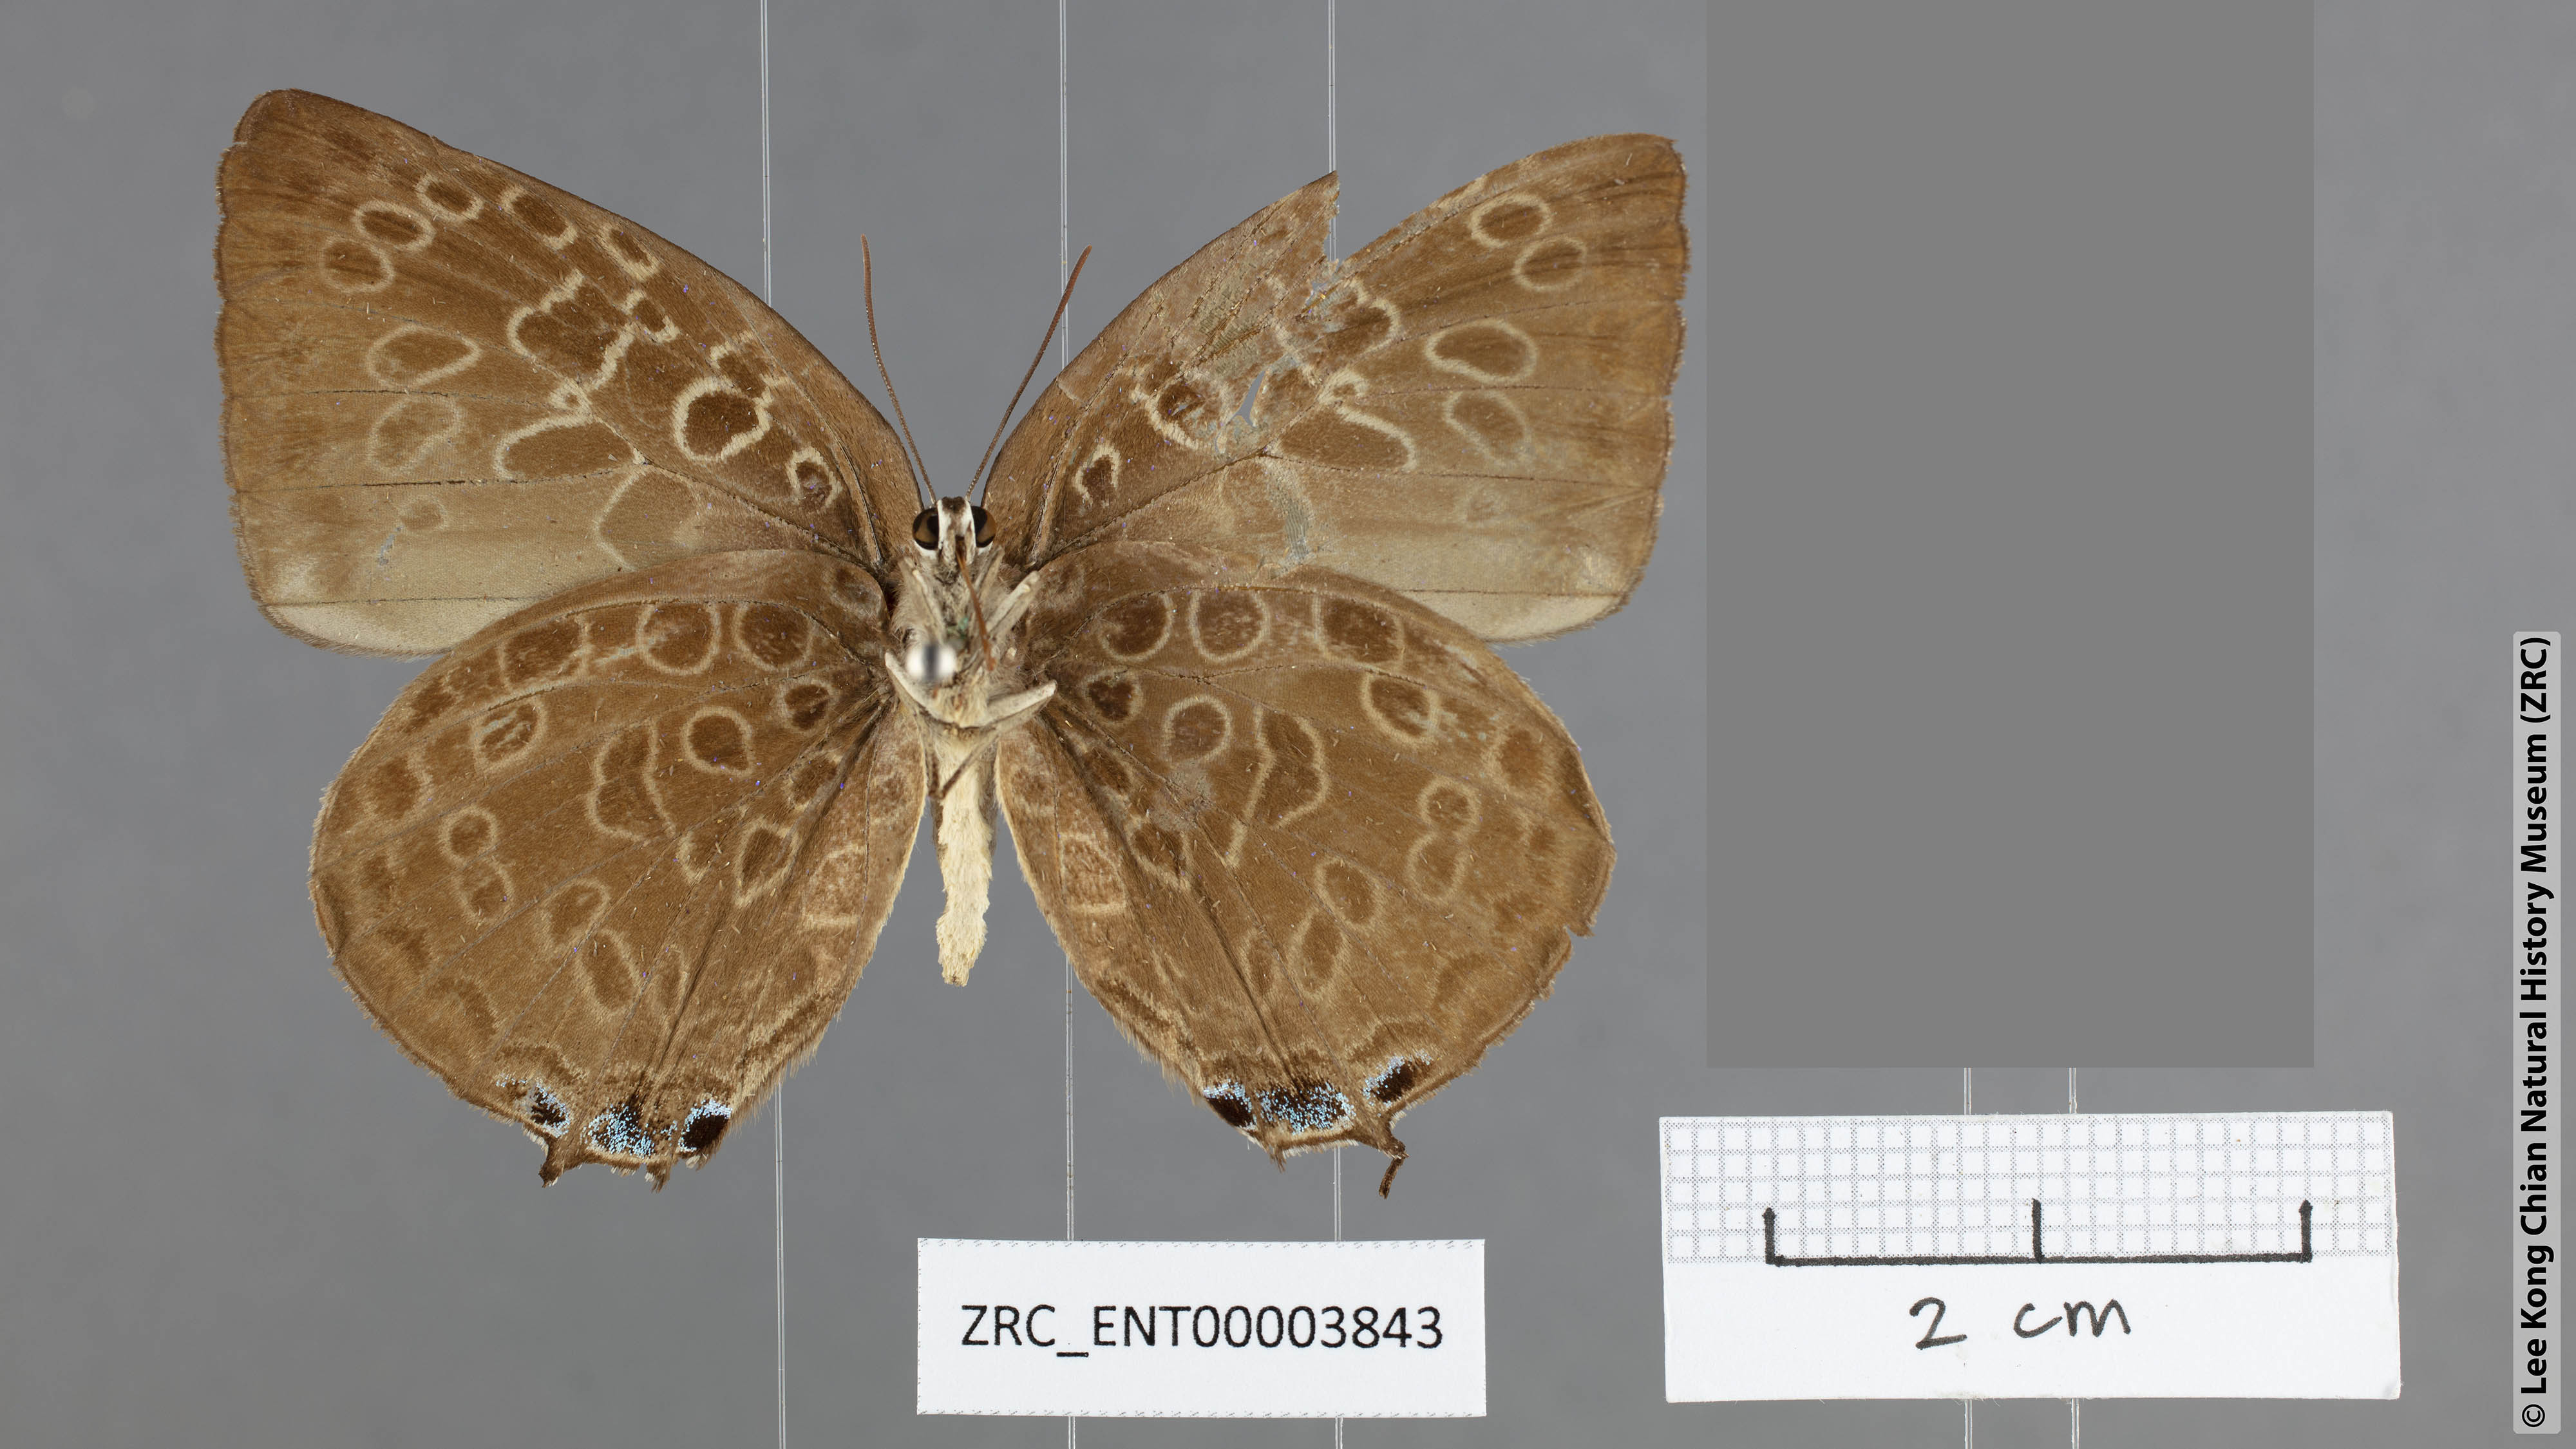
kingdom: Animalia
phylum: Arthropoda
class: Insecta
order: Lepidoptera
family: Lycaenidae
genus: Arhopala
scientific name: Arhopala anarte
